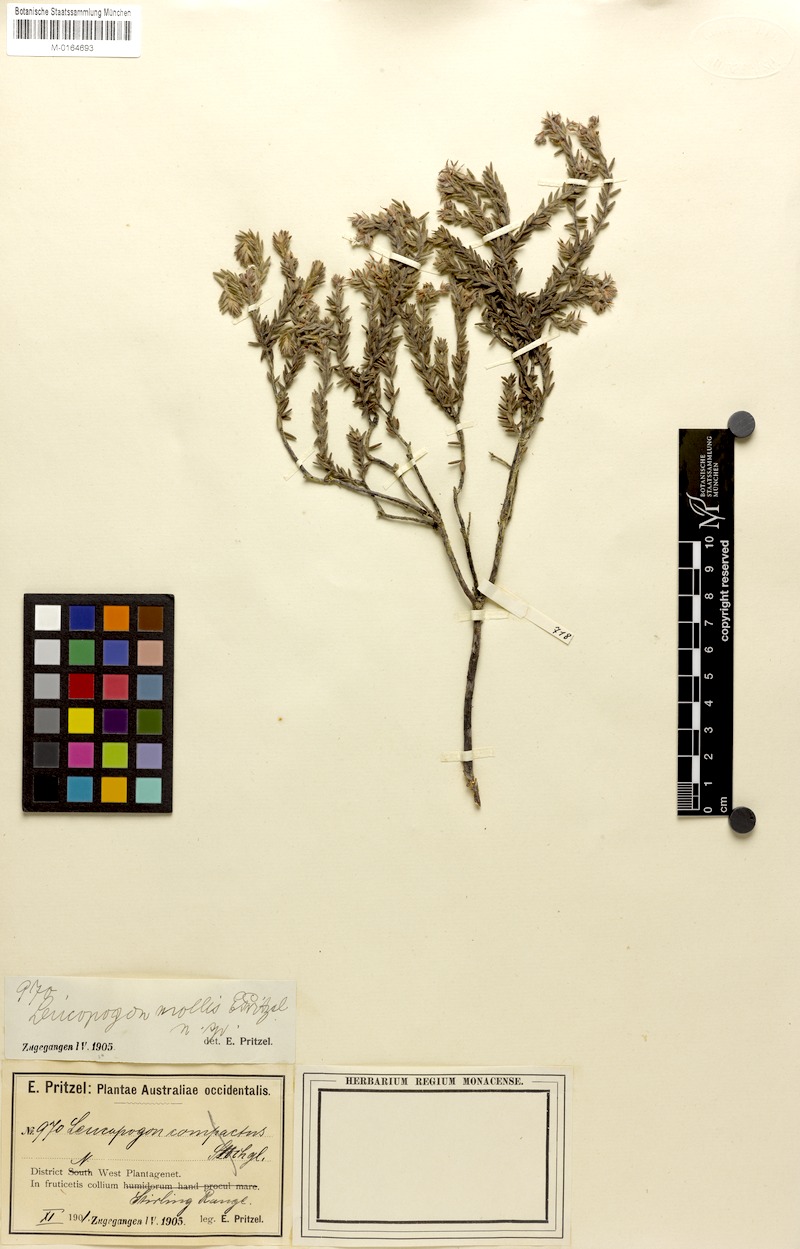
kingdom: Plantae
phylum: Tracheophyta
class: Magnoliopsida
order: Ericales
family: Ericaceae
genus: Leucopogon
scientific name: Leucopogon mollis
